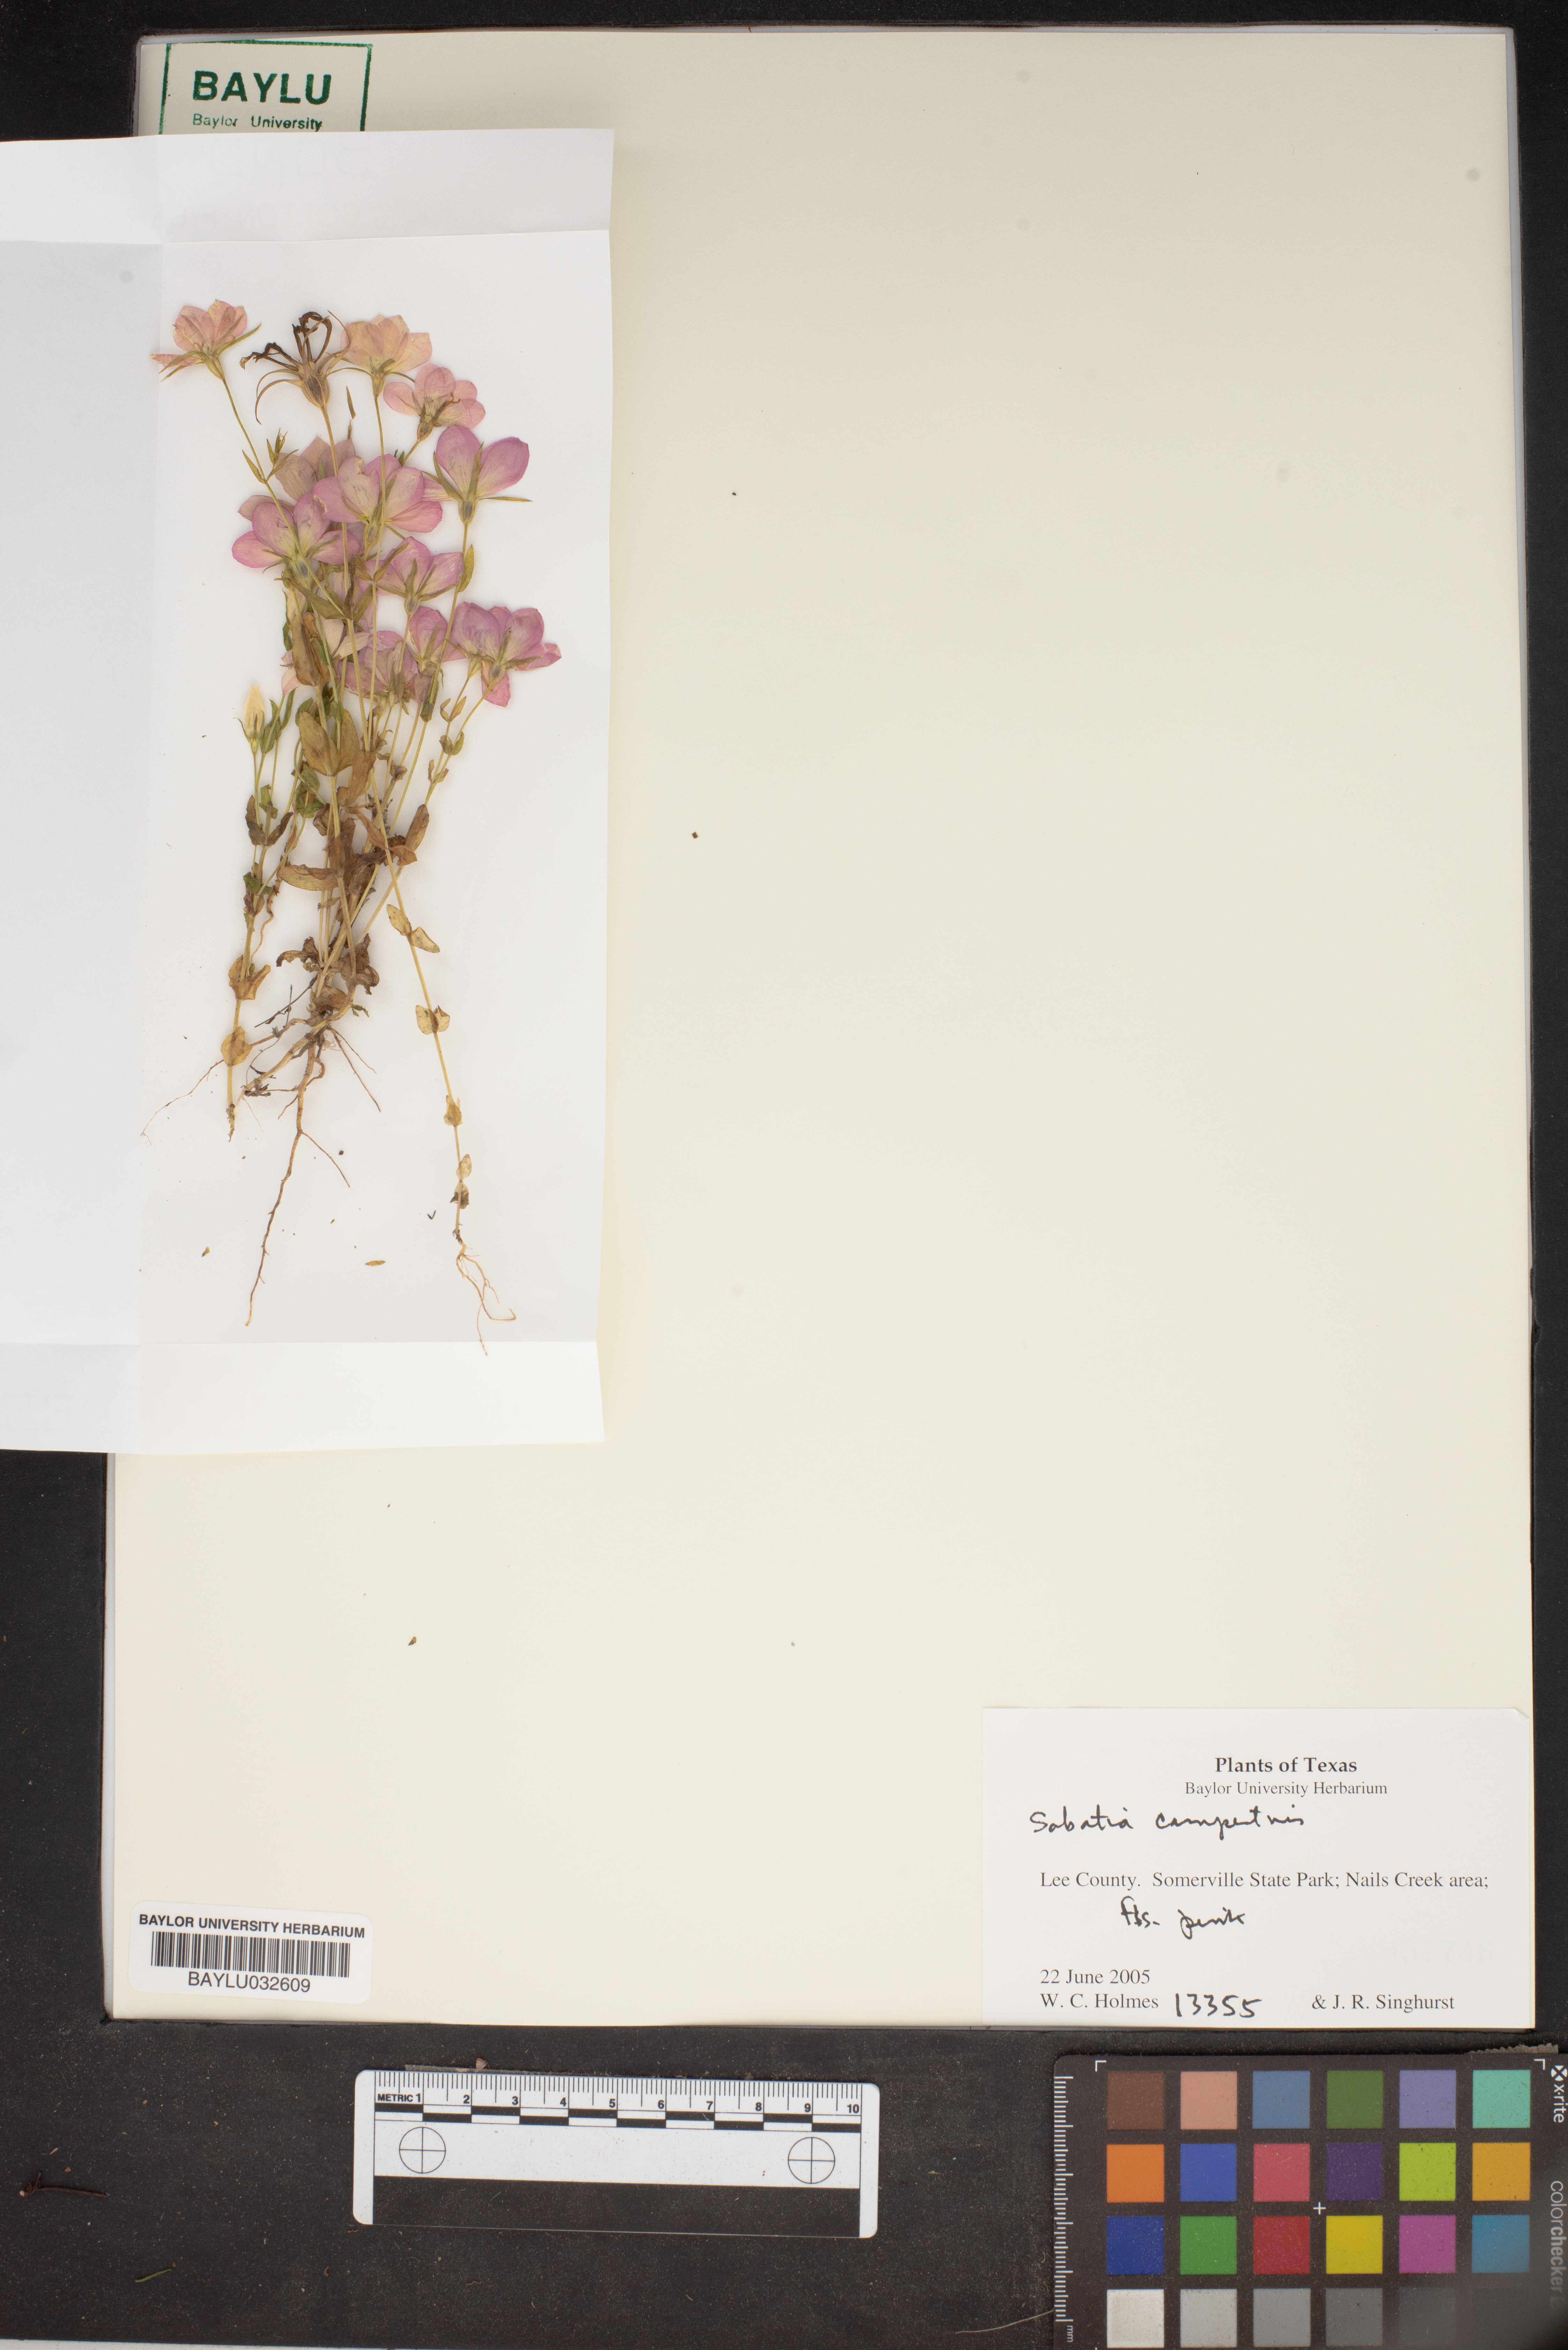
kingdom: Plantae
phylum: Tracheophyta
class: Magnoliopsida
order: Gentianales
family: Gentianaceae
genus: Sabatia
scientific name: Sabatia campestris
